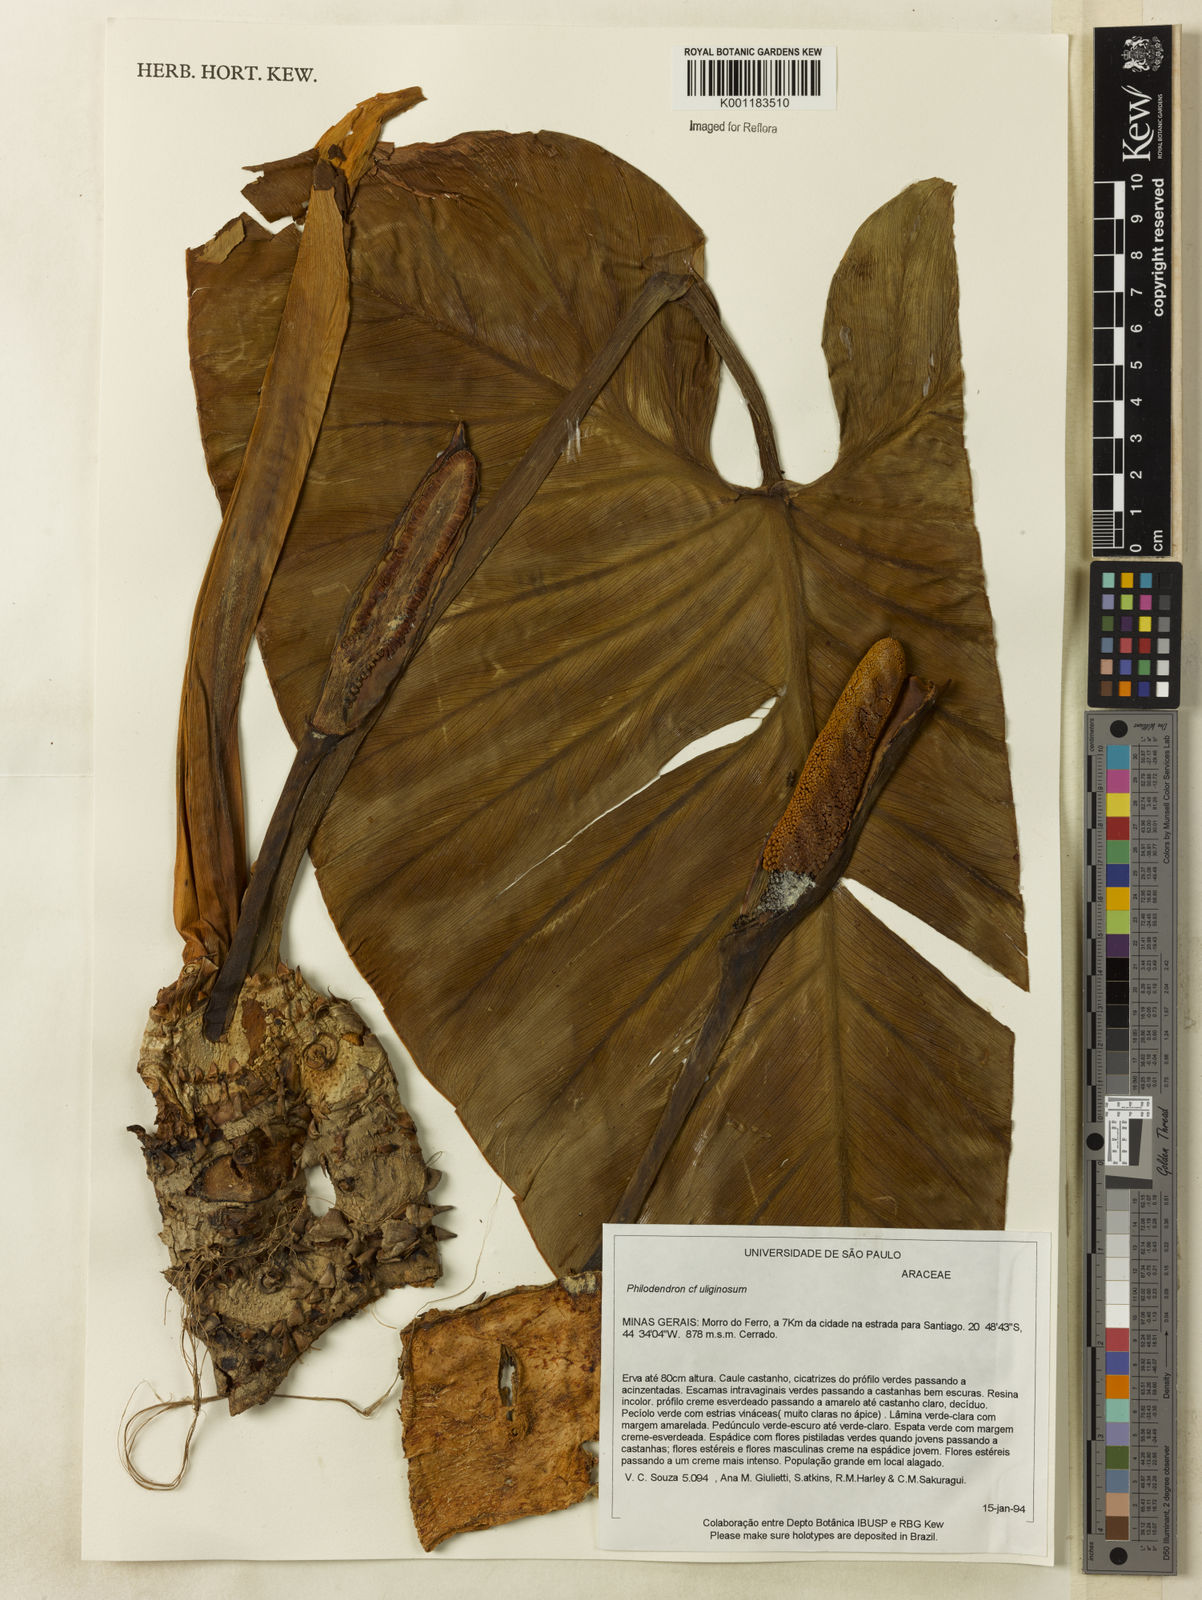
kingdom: Plantae
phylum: Tracheophyta
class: Liliopsida
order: Alismatales
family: Araceae
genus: Thaumatophyllum
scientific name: Thaumatophyllum uliginosum
